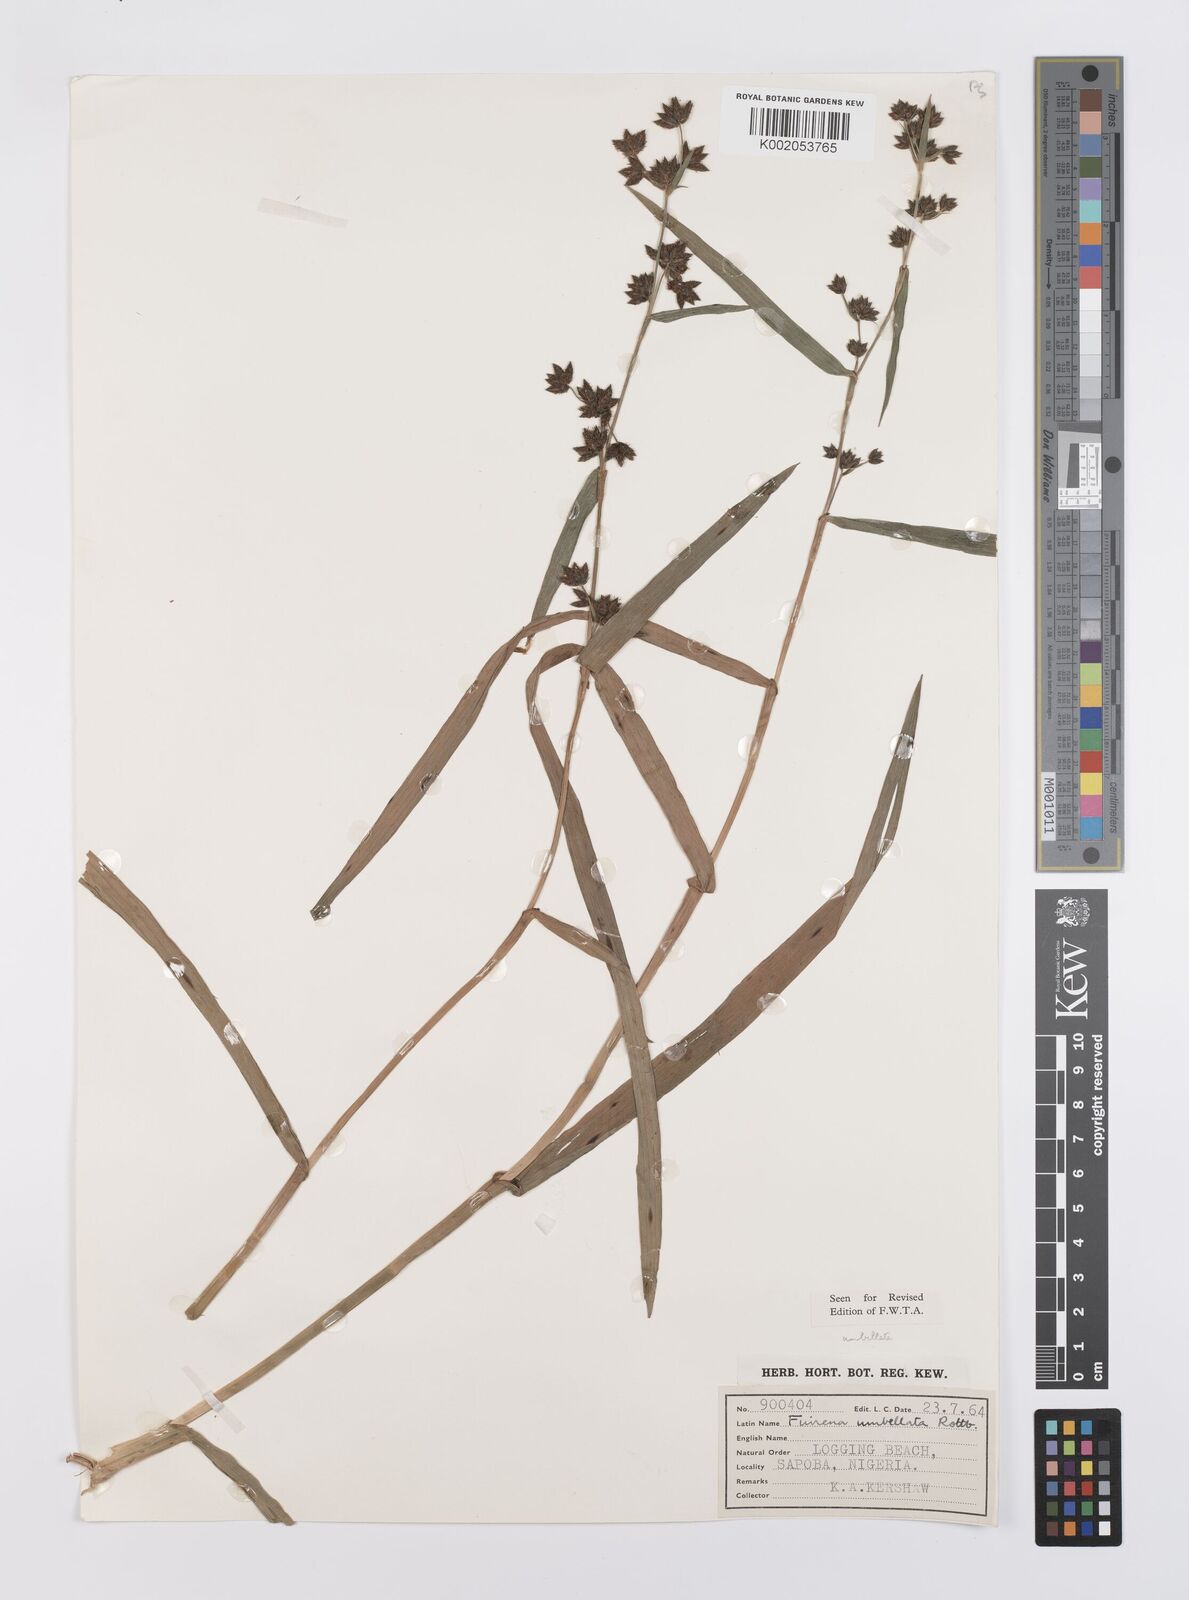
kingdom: Plantae
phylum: Tracheophyta
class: Liliopsida
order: Poales
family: Cyperaceae
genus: Fuirena
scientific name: Fuirena umbellata
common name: Yefen
